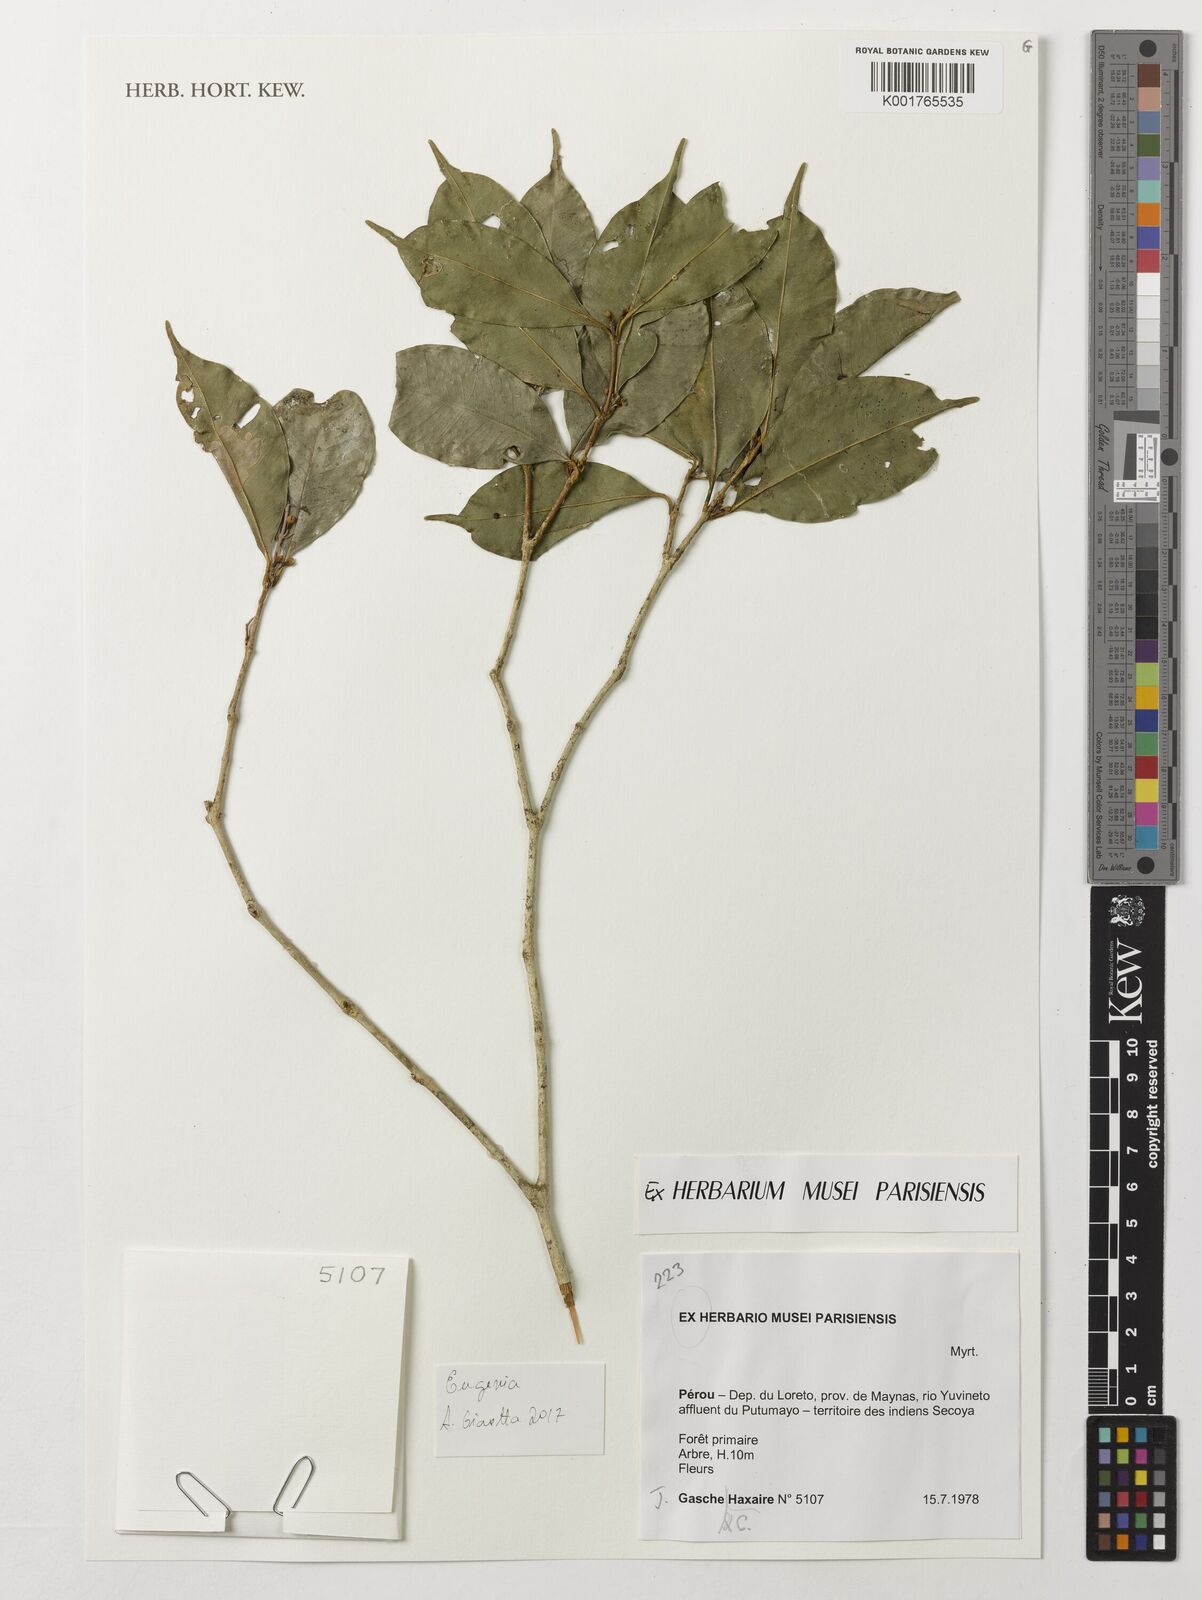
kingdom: Plantae
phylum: Tracheophyta
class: Magnoliopsida
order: Myrtales
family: Myrtaceae
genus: Eugenia
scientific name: Eugenia
